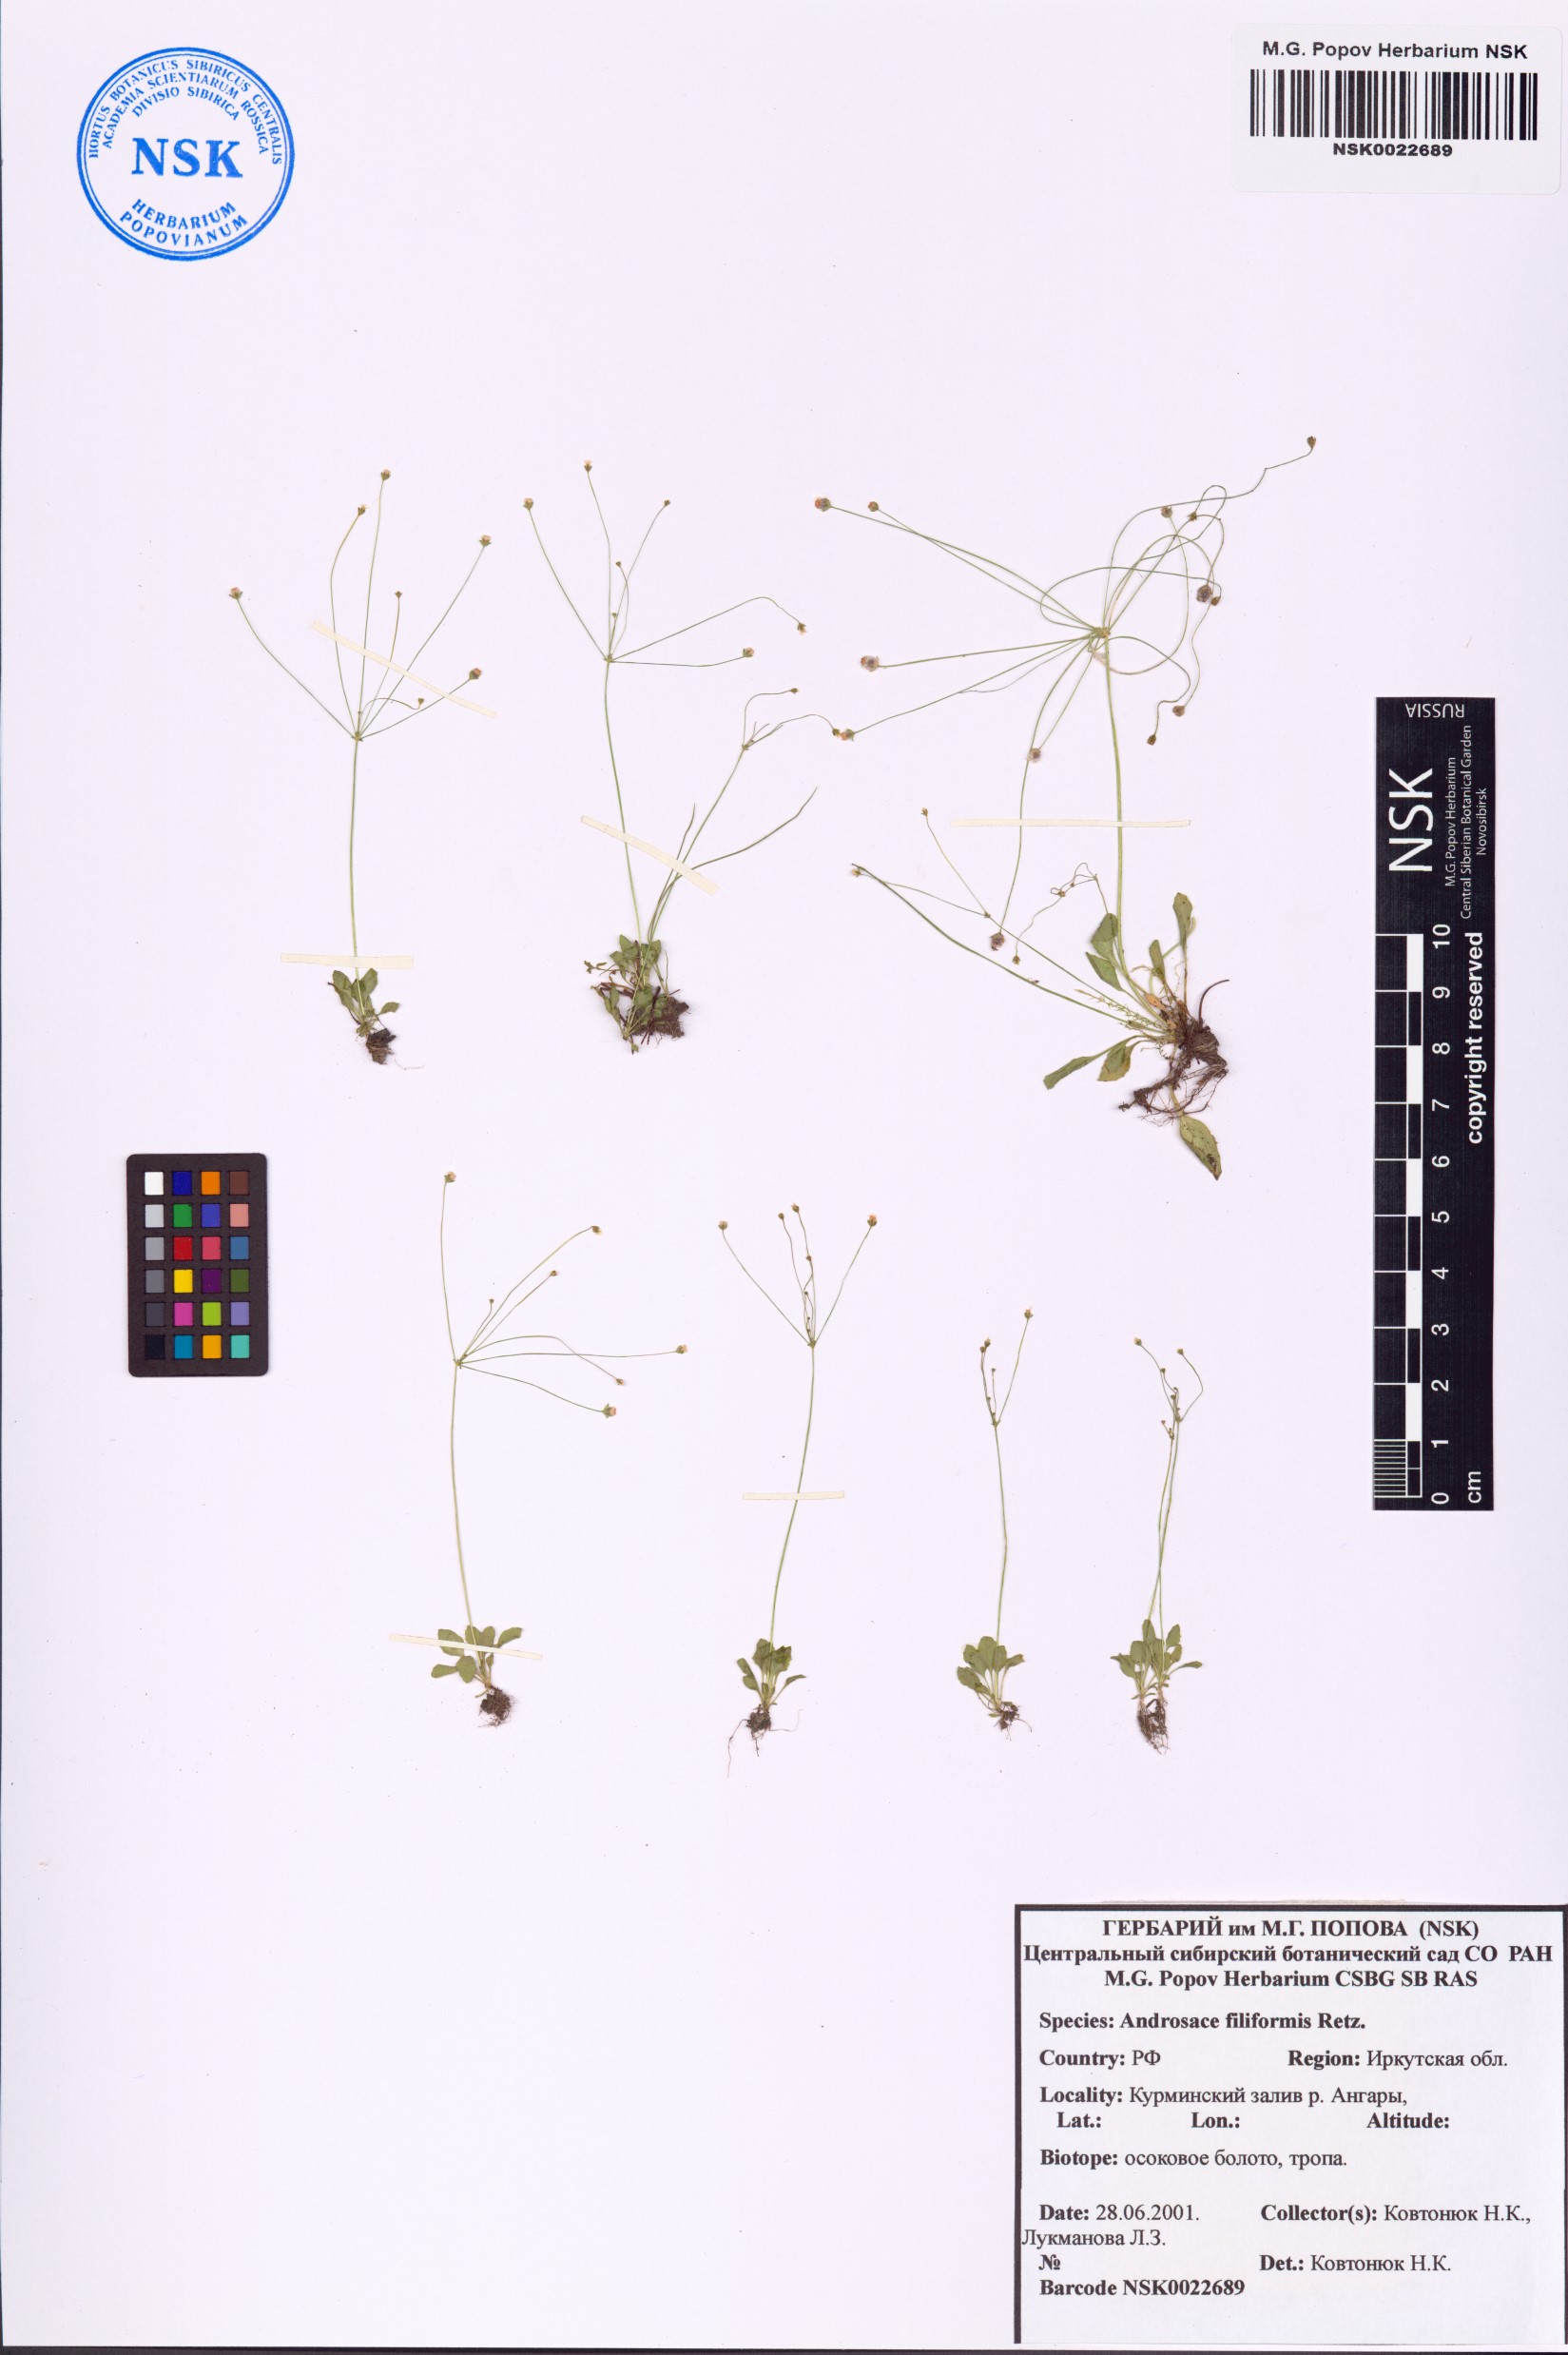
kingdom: Plantae
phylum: Tracheophyta
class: Magnoliopsida
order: Ericales
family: Primulaceae
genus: Androsace
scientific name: Androsace filiformis
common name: Filiform rock jasmine
